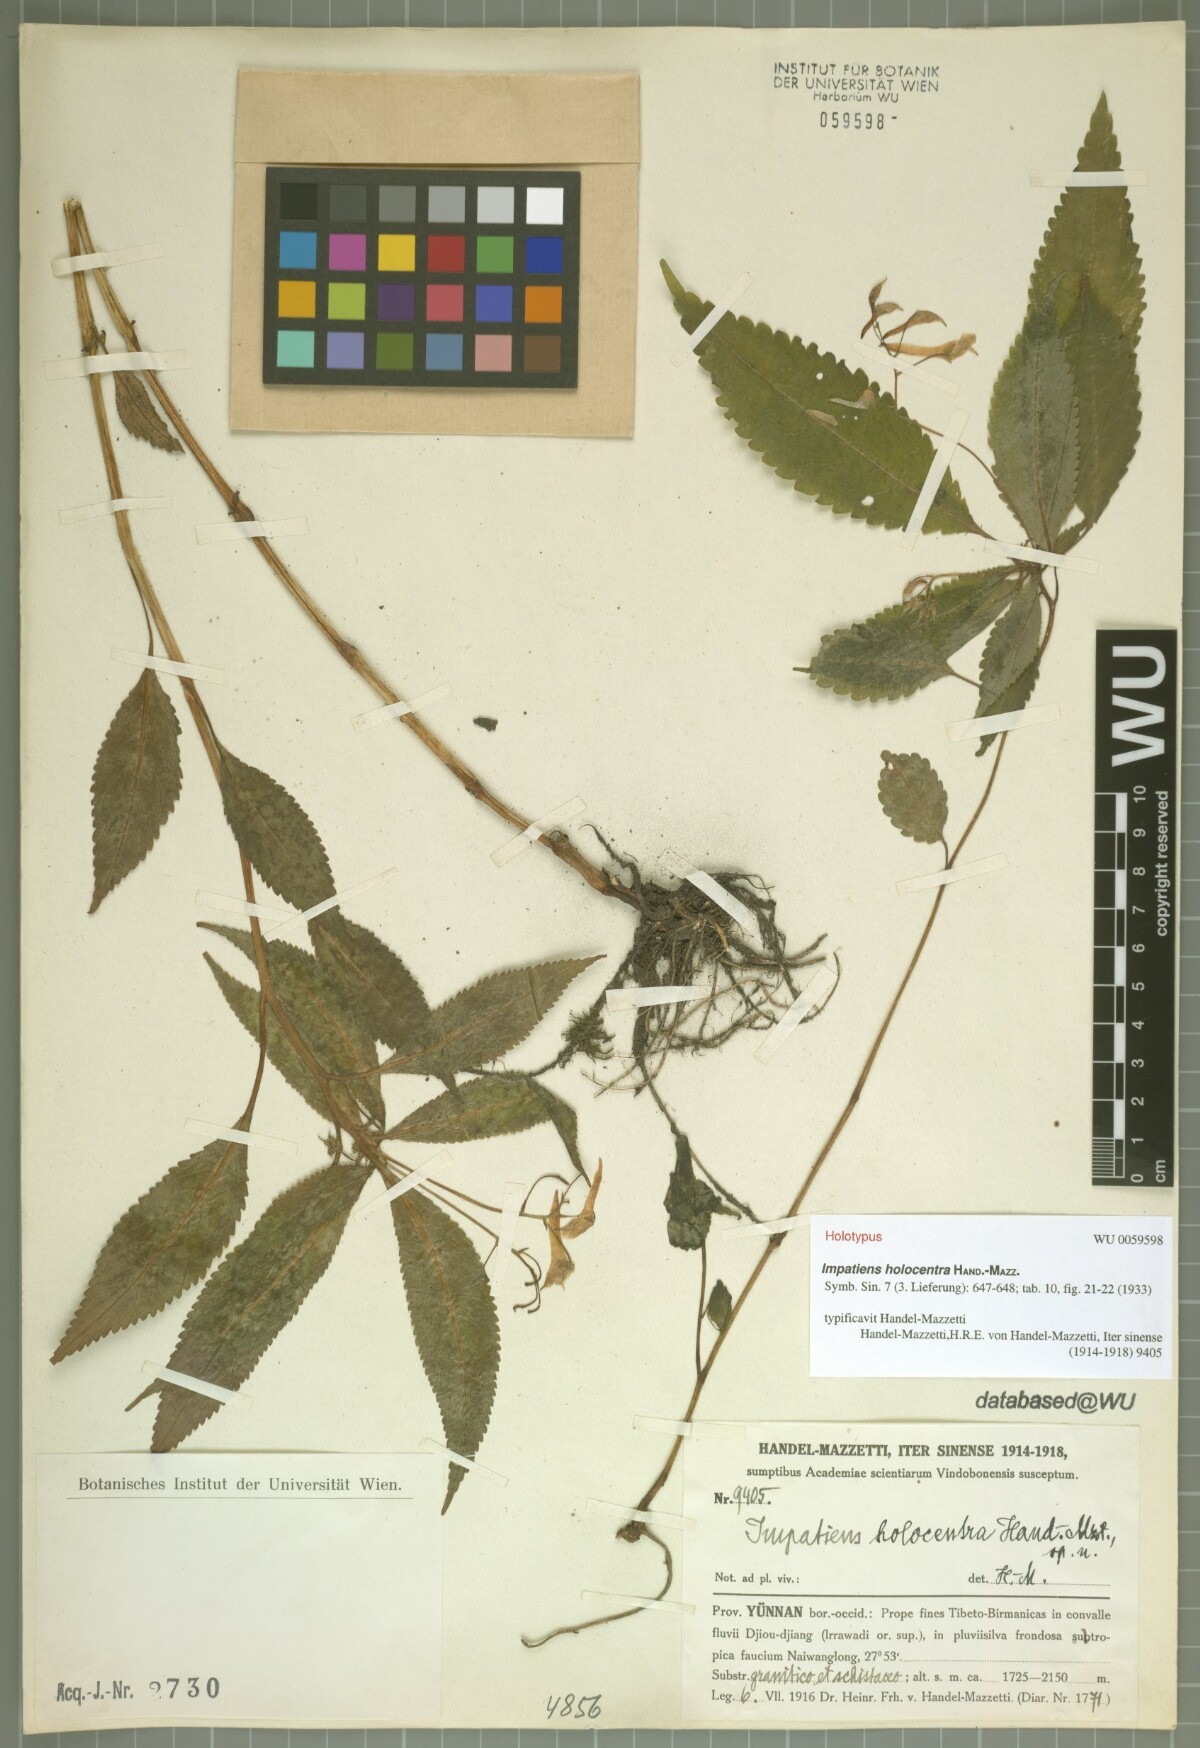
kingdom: Plantae
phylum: Tracheophyta
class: Magnoliopsida
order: Ericales
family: Balsaminaceae
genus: Impatiens
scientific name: Impatiens holocentra
